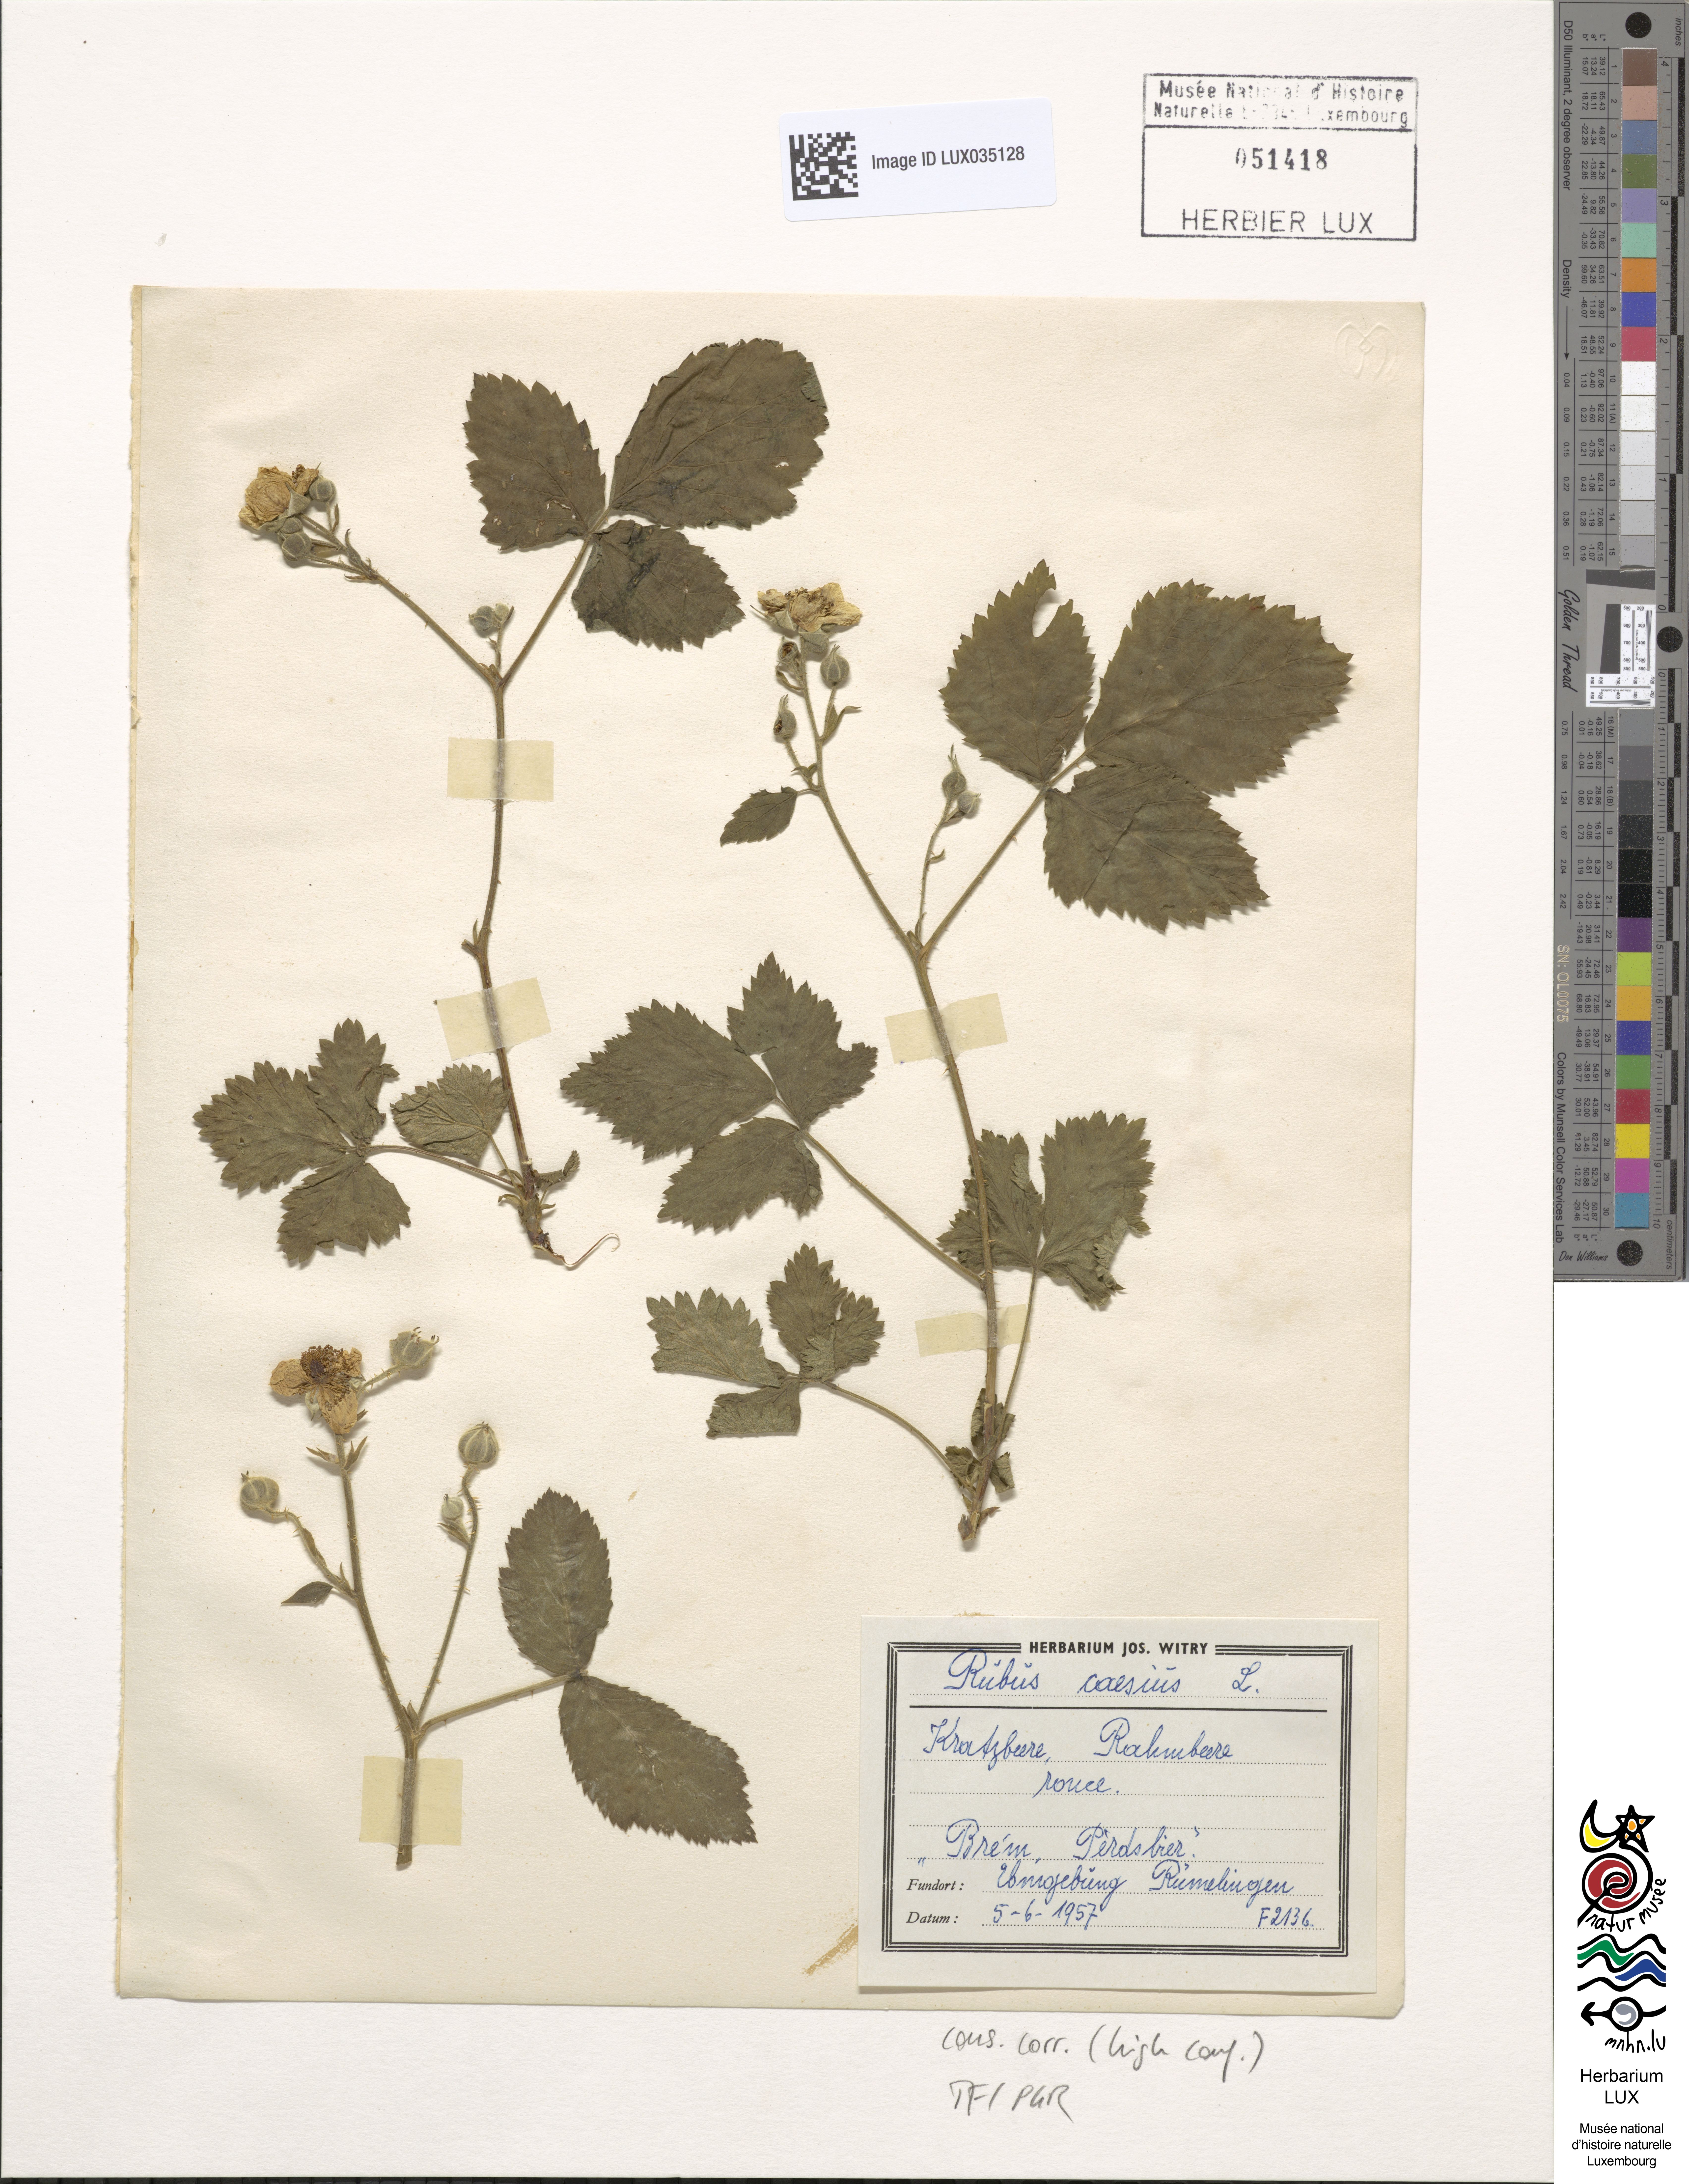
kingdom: Plantae
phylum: Tracheophyta
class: Magnoliopsida
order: Rosales
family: Rosaceae
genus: Rubus
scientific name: Rubus caesius
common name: Dewberry
